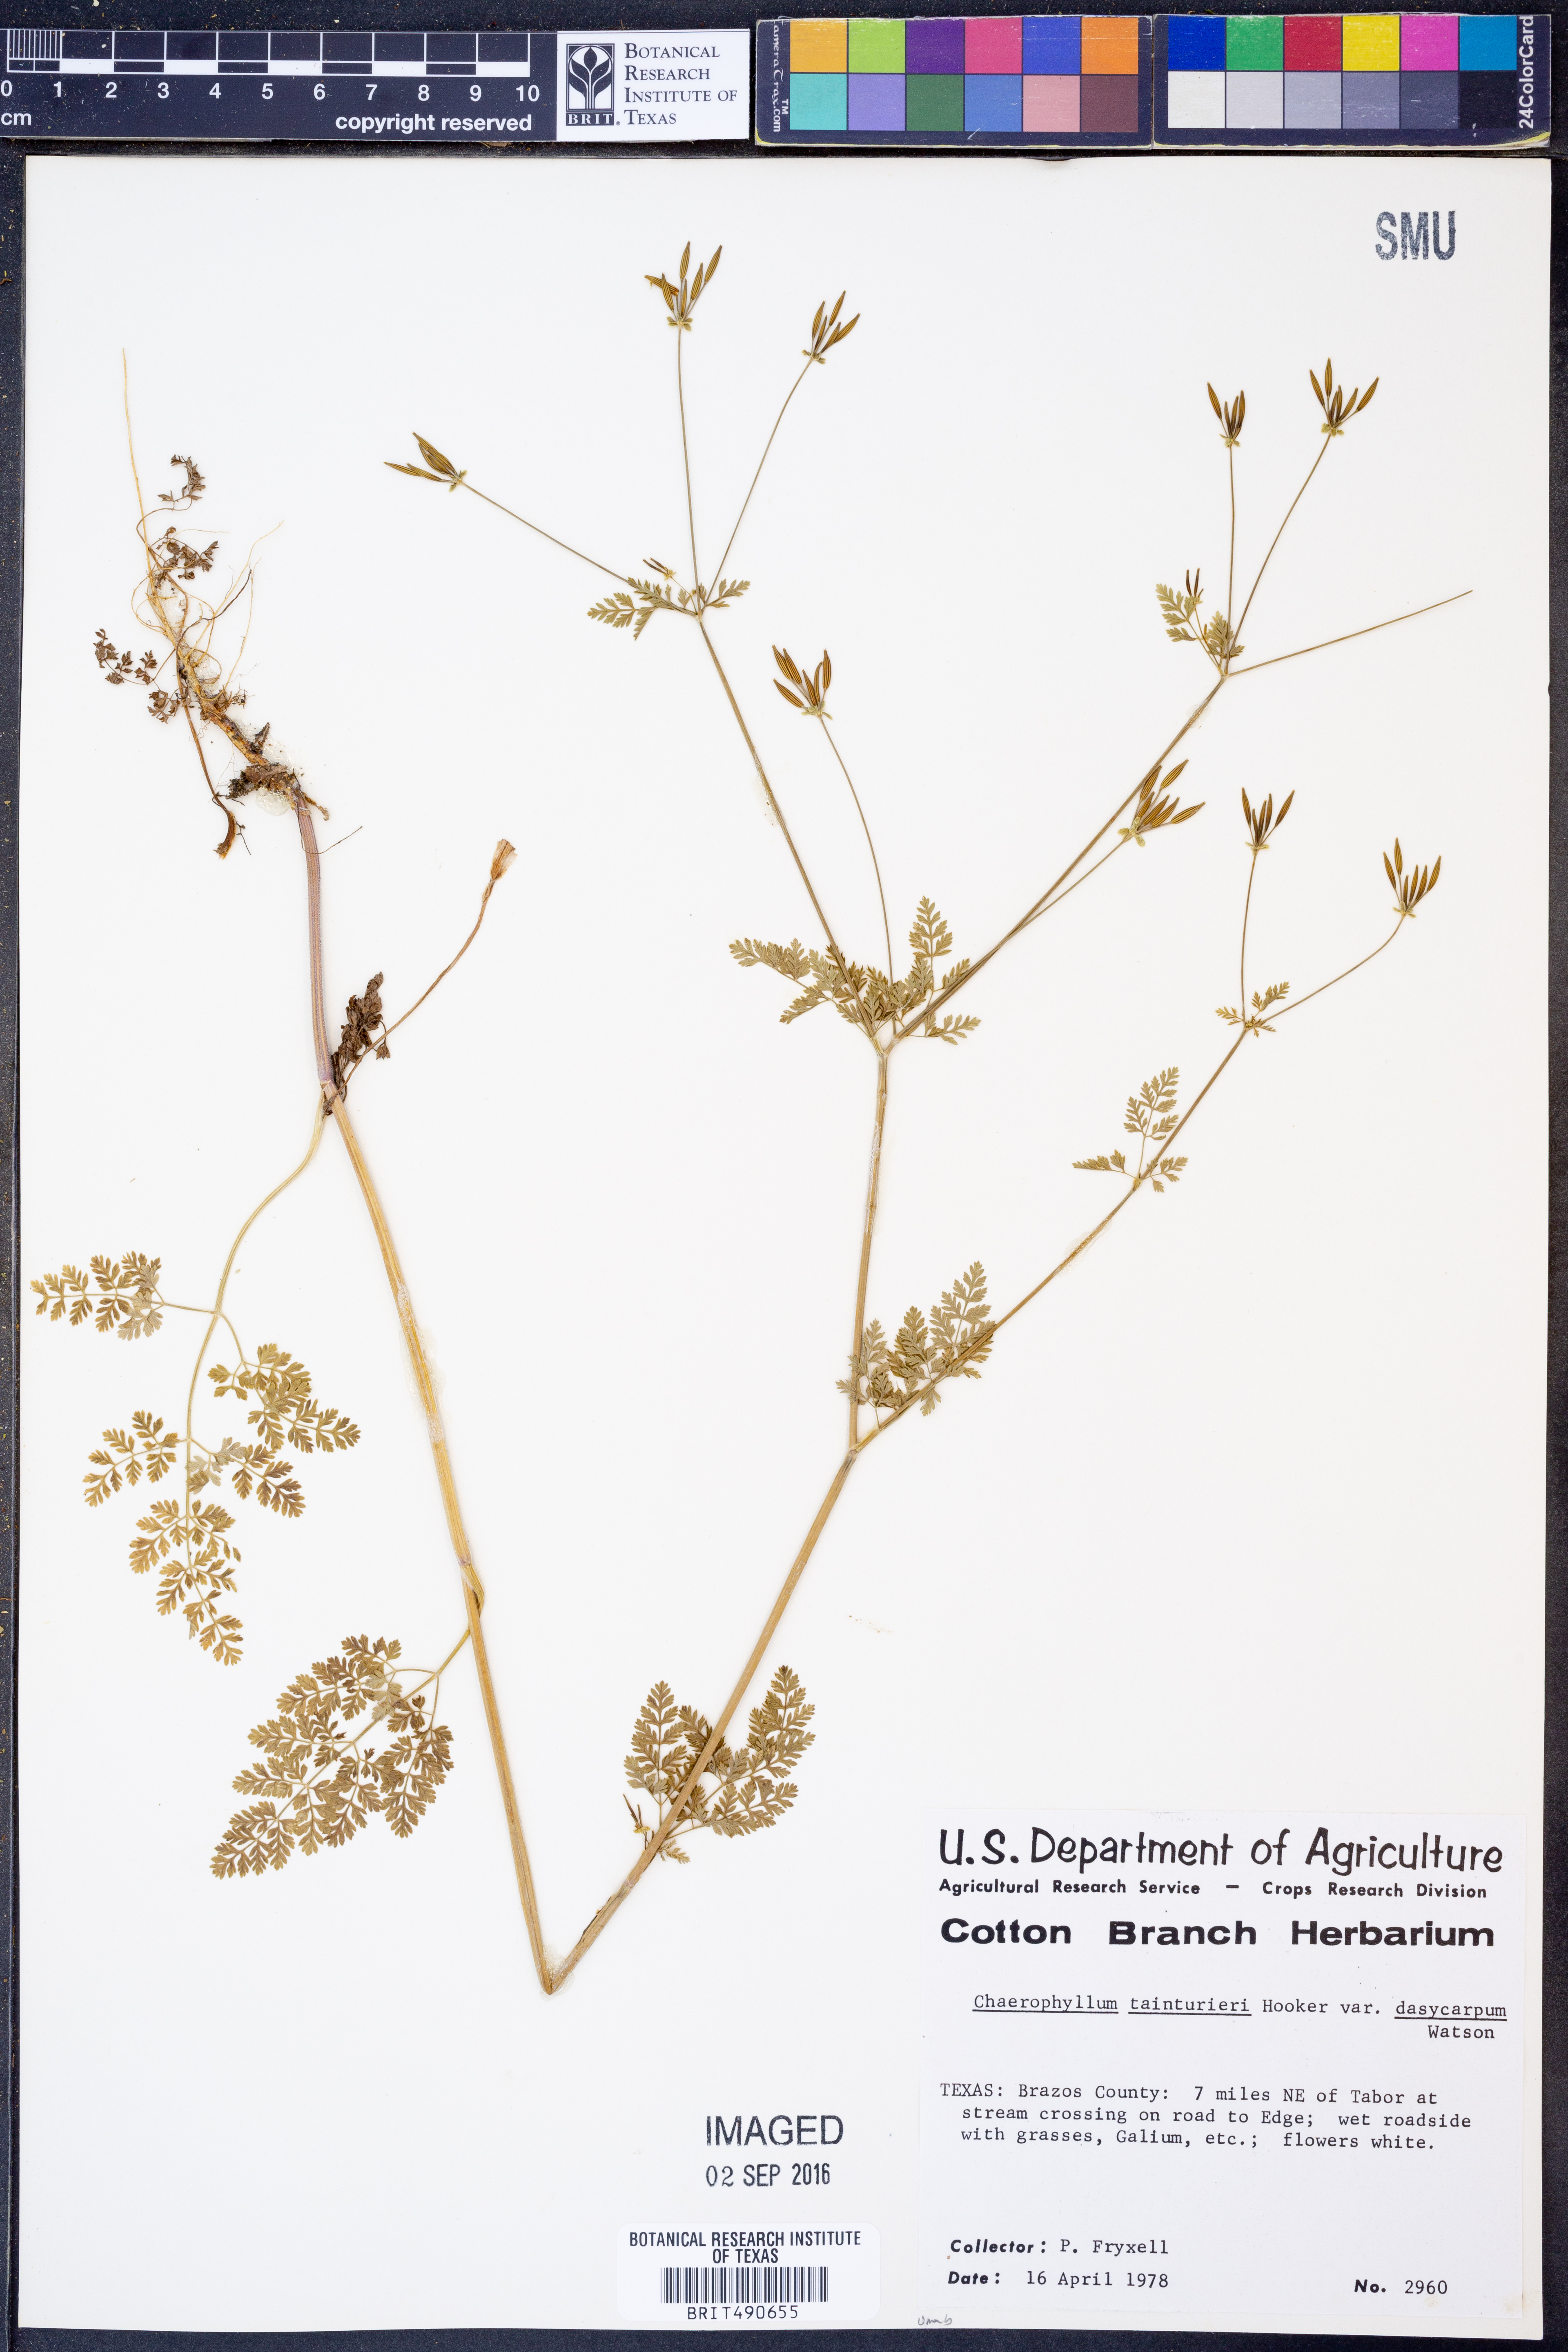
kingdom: Plantae
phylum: Tracheophyta
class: Magnoliopsida
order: Apiales
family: Apiaceae
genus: Chaerophyllum
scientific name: Chaerophyllum dasycarpum
